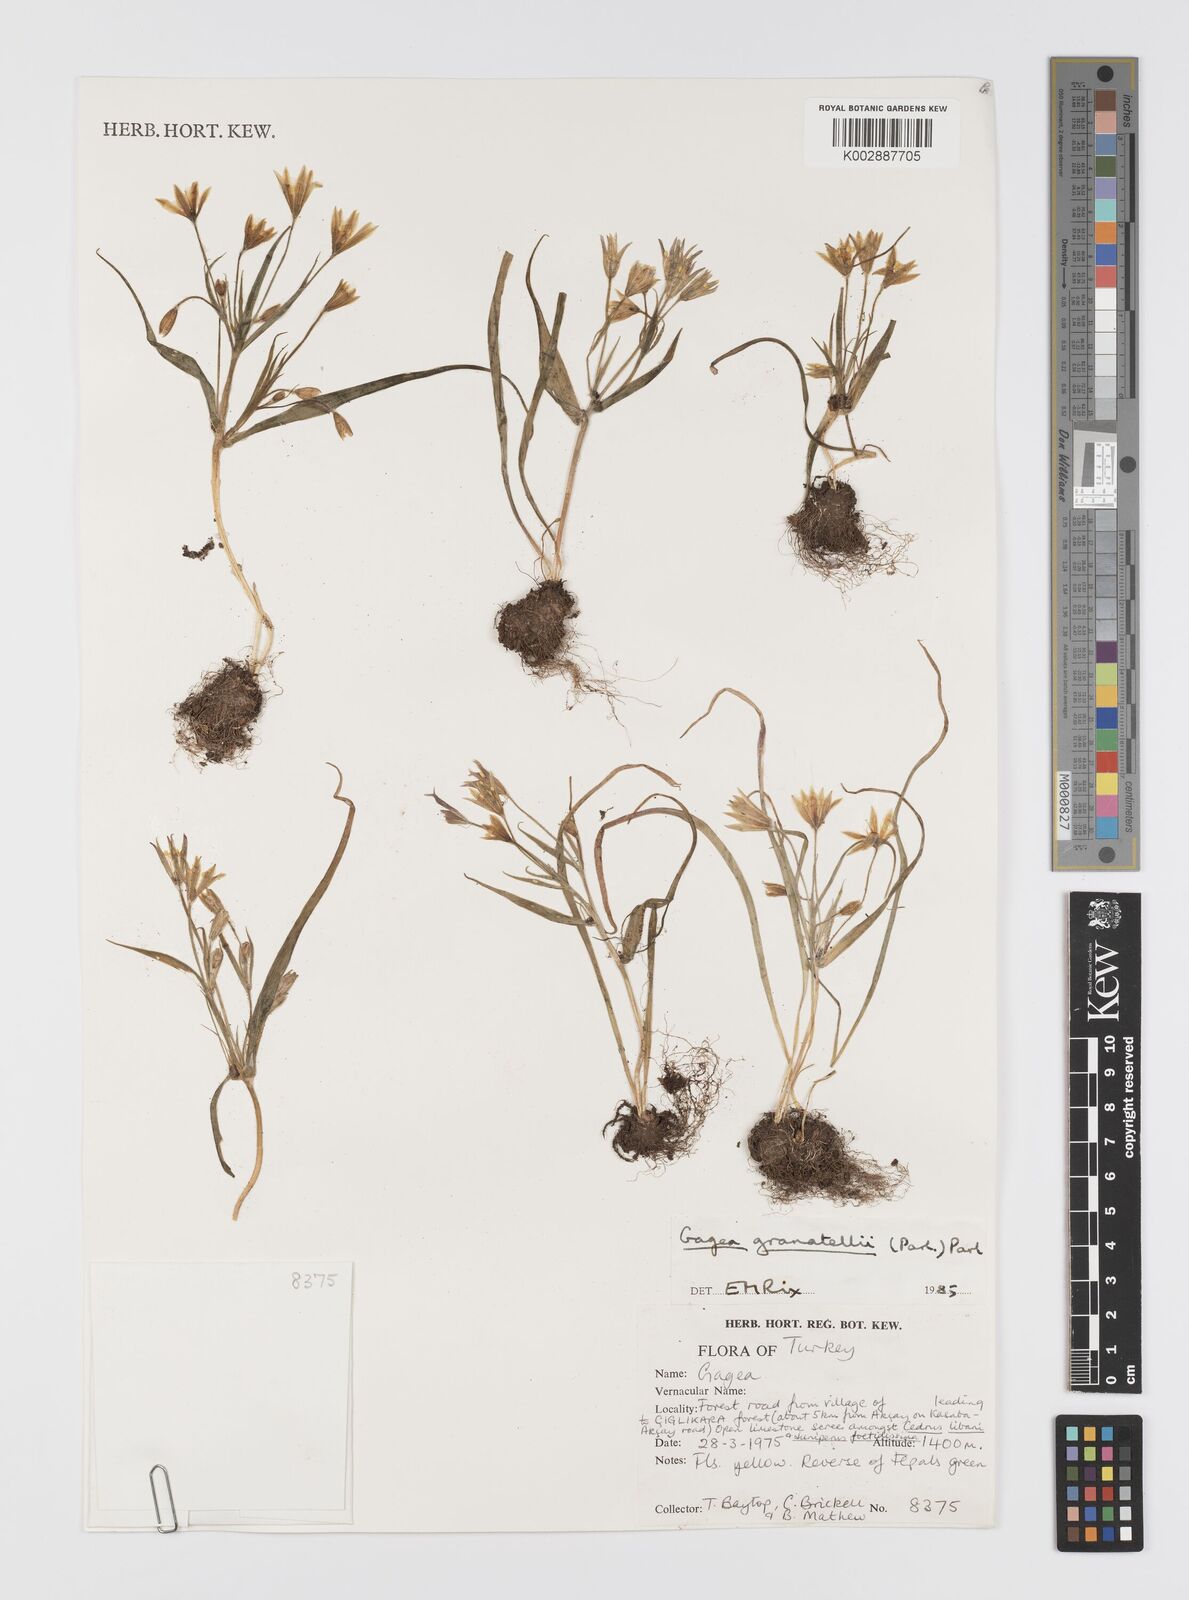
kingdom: Plantae
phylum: Tracheophyta
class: Liliopsida
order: Liliales
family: Liliaceae
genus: Gagea
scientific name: Gagea minima
